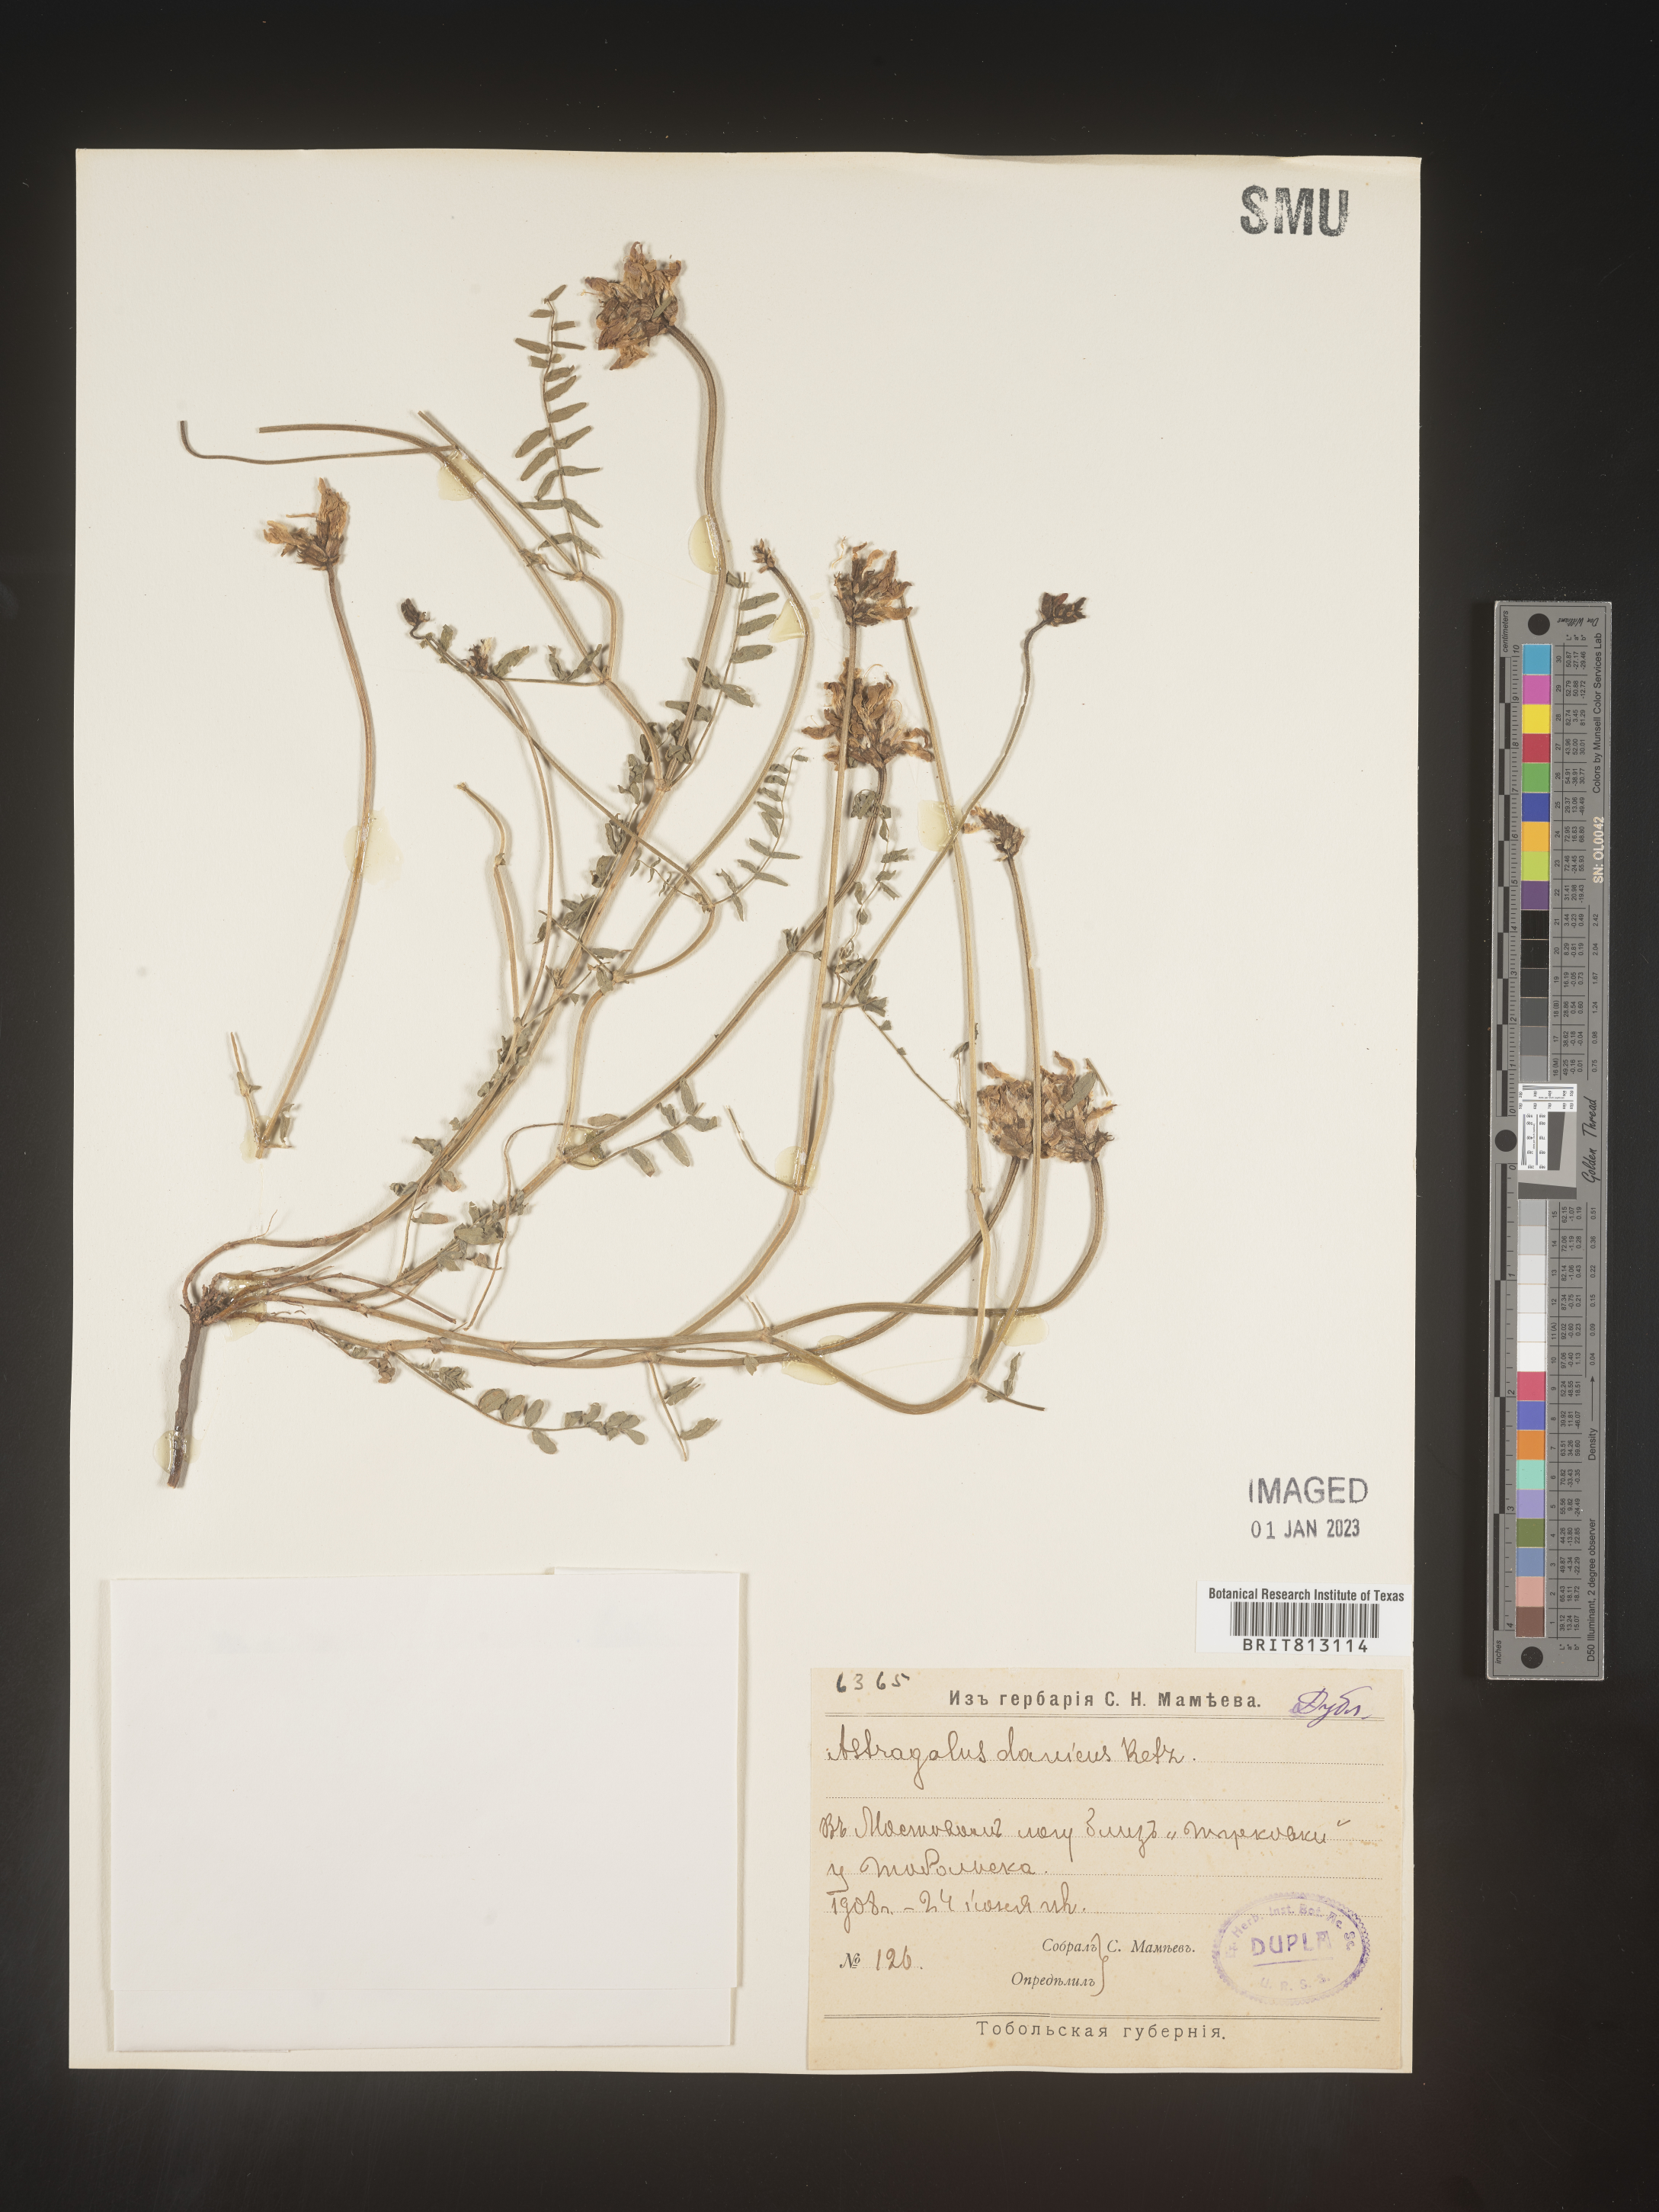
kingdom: Plantae
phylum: Tracheophyta
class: Magnoliopsida
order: Fabales
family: Fabaceae
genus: Astragalus
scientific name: Astragalus
